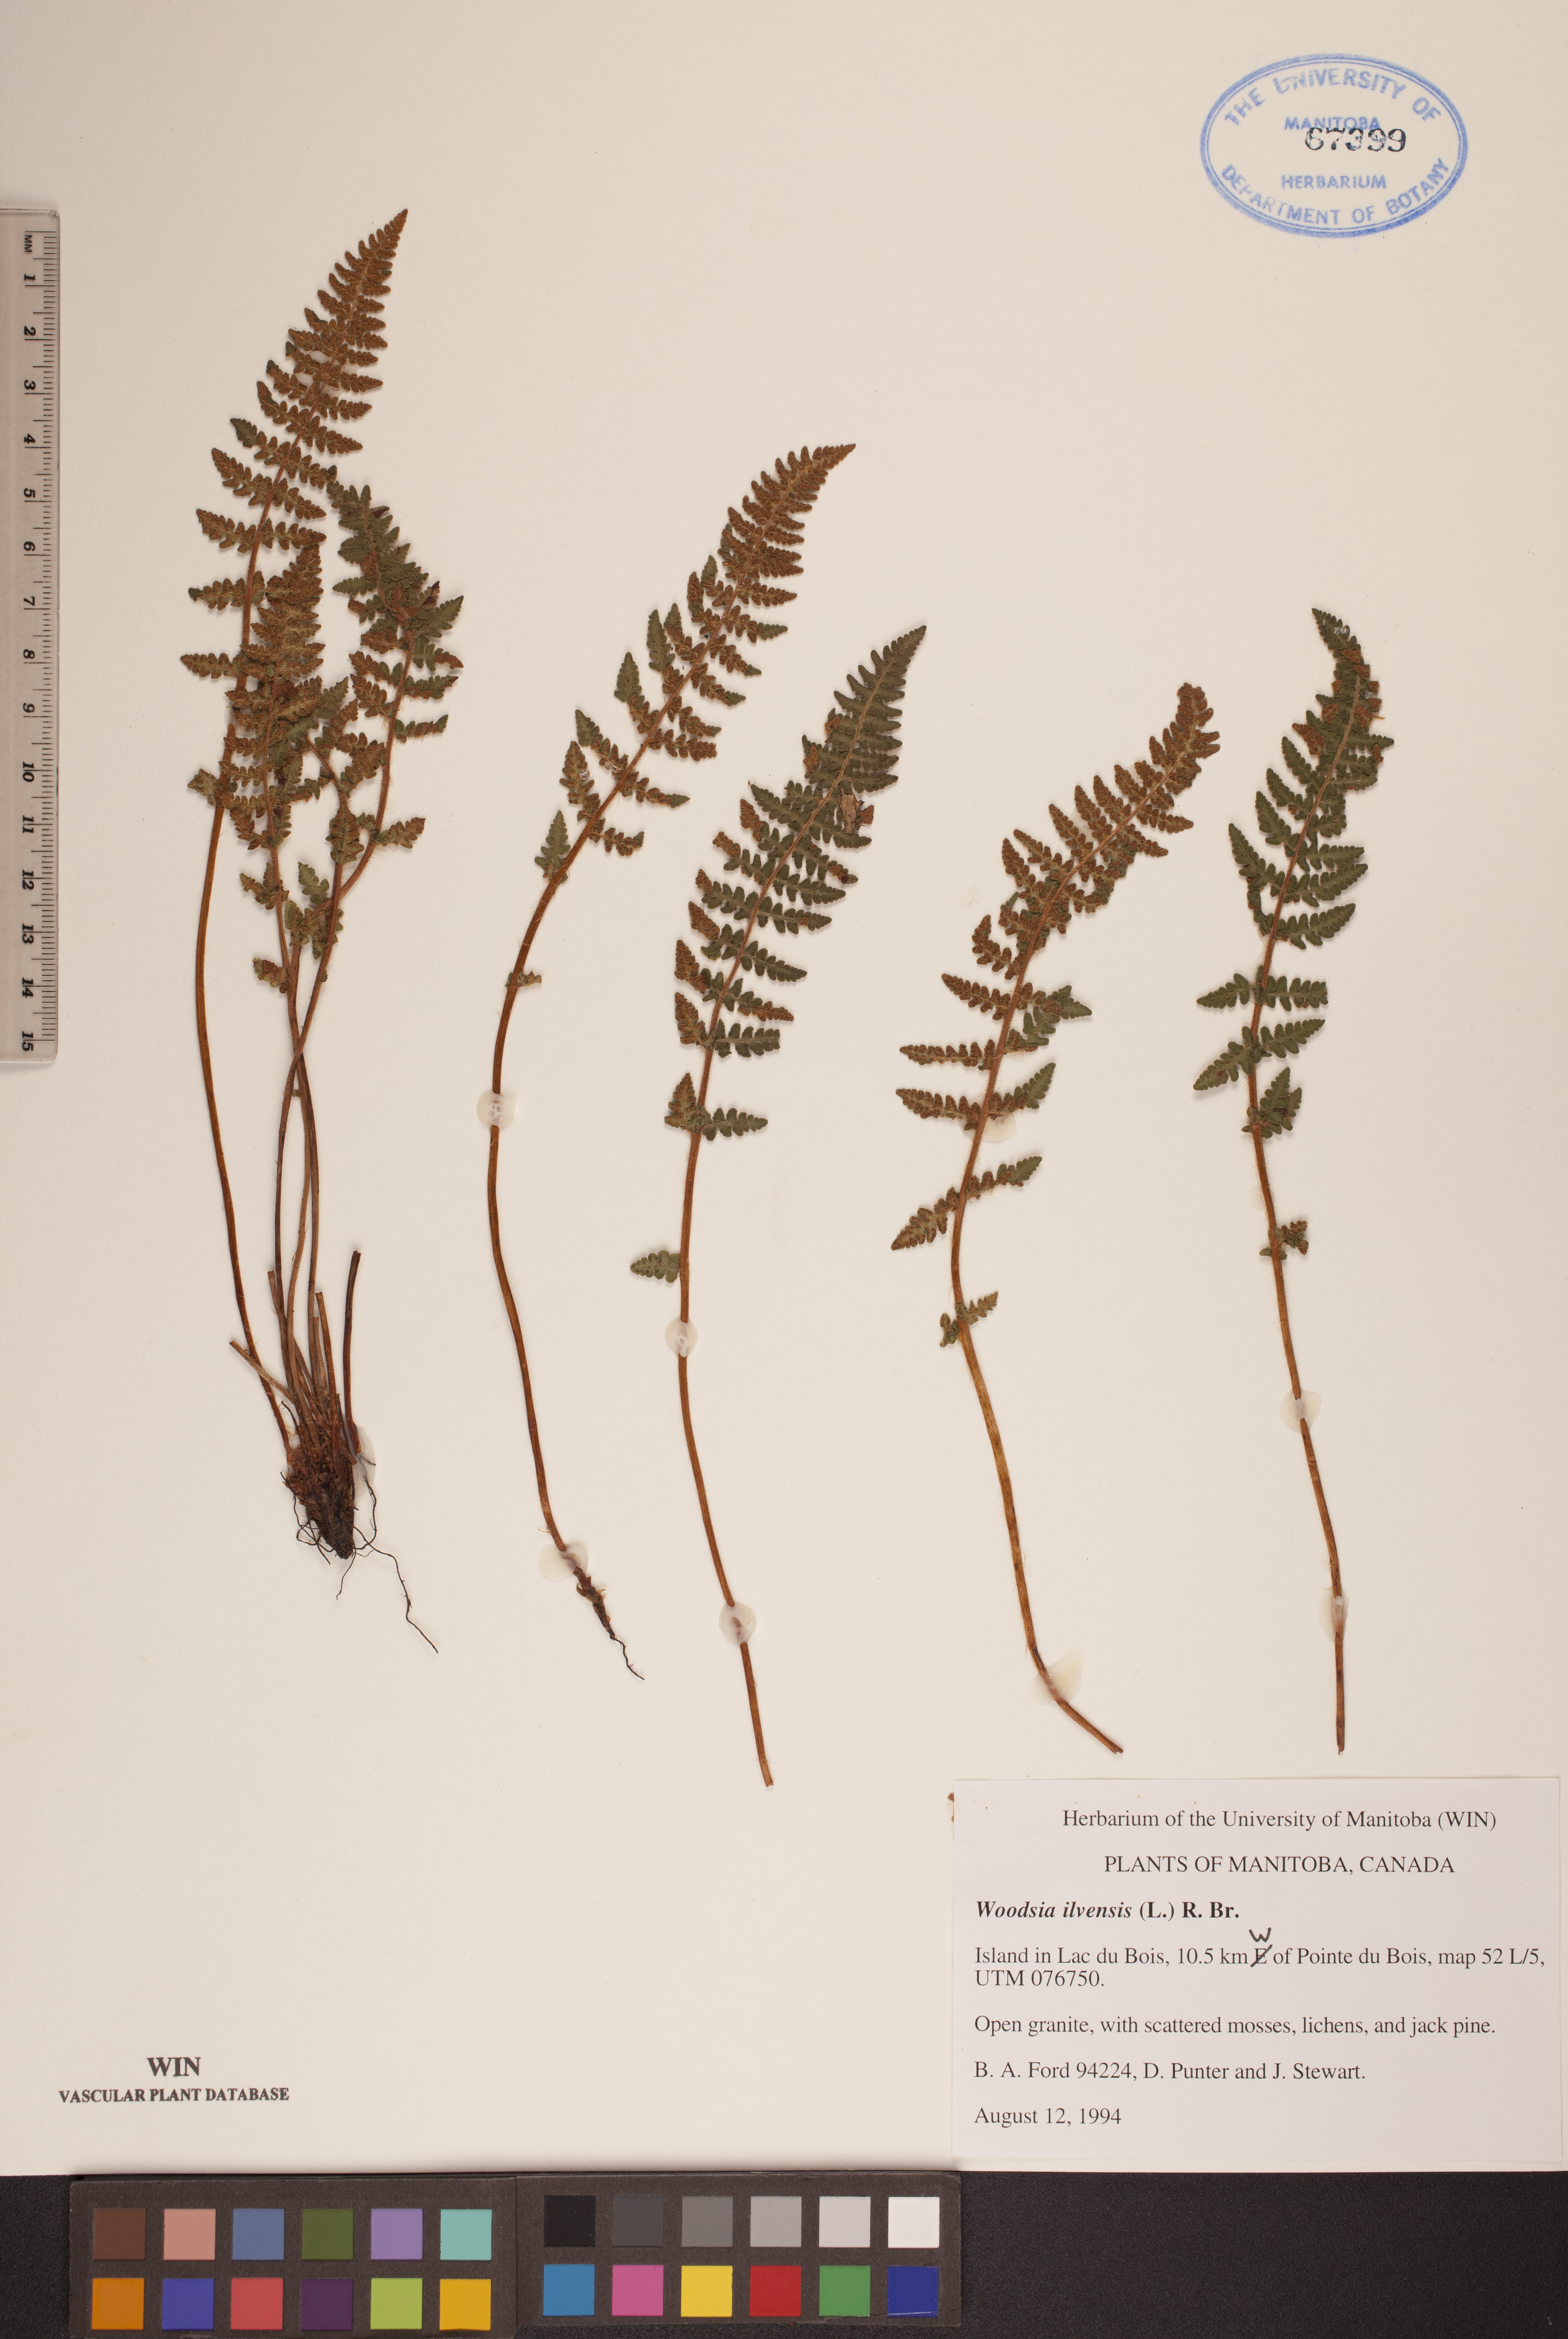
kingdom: Plantae
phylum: Tracheophyta
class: Polypodiopsida
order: Polypodiales
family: Woodsiaceae
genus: Woodsia
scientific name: Woodsia ilvensis
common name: Fragrant woodsia
